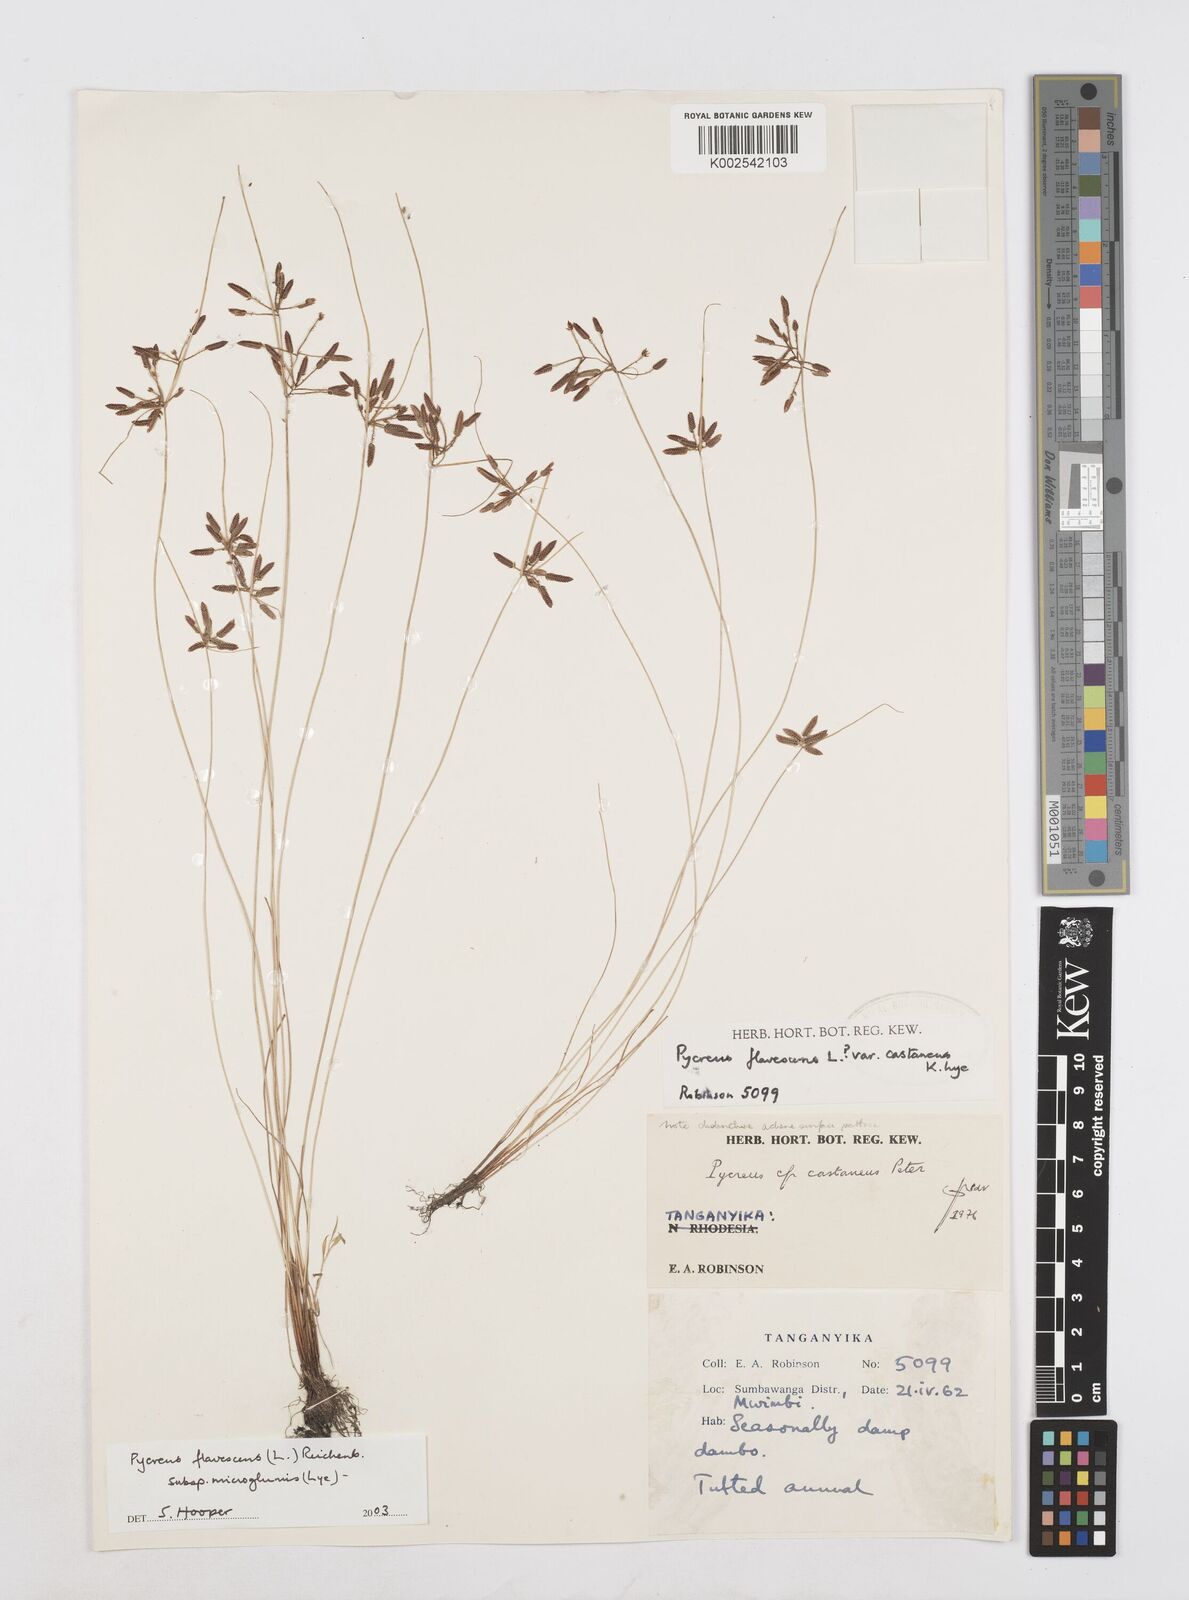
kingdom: Plantae
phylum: Tracheophyta
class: Liliopsida
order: Poales
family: Cyperaceae
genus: Cyperus
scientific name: Cyperus flavescens
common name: Yellow galingale
